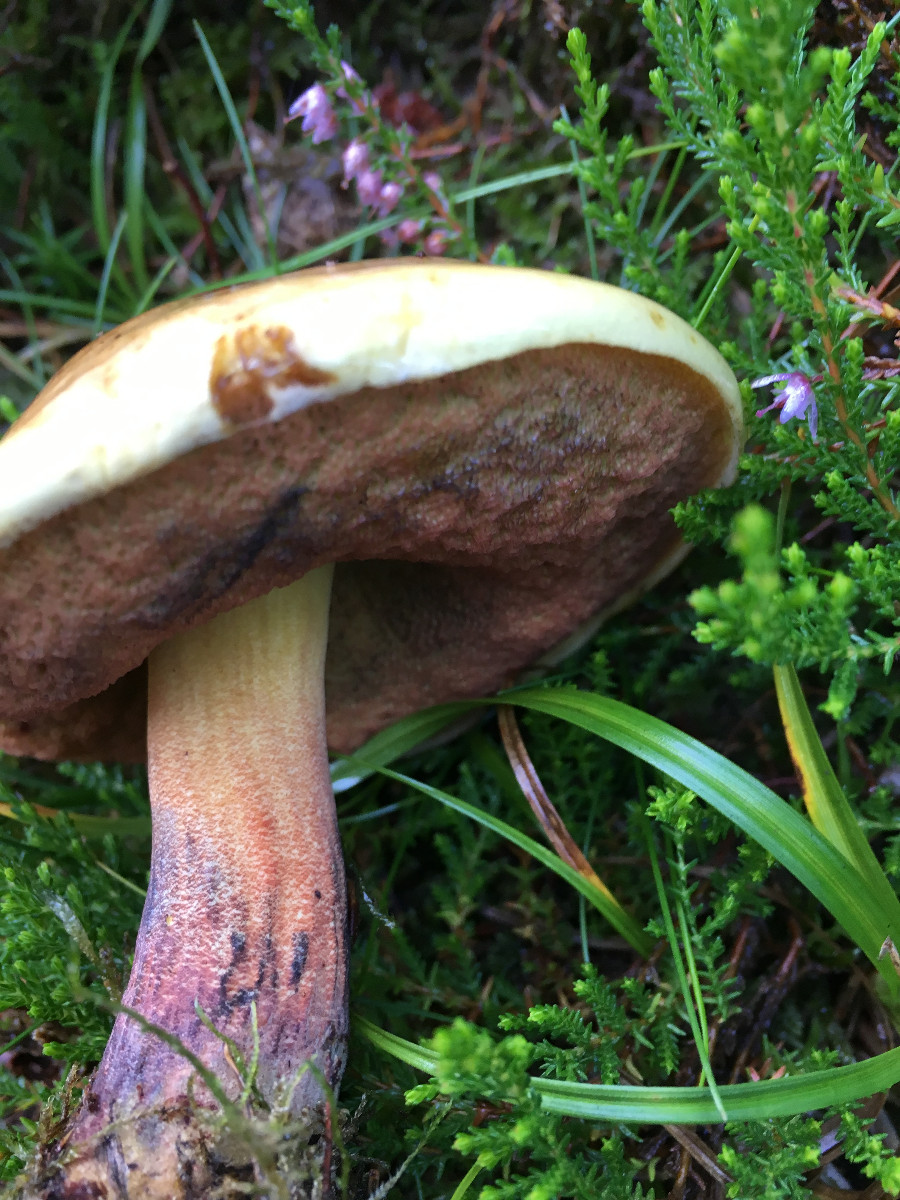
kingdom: Fungi
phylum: Basidiomycota
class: Agaricomycetes
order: Boletales
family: Boletaceae
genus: Neoboletus
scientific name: Neoboletus erythropus
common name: punktstokket indigorørhat
